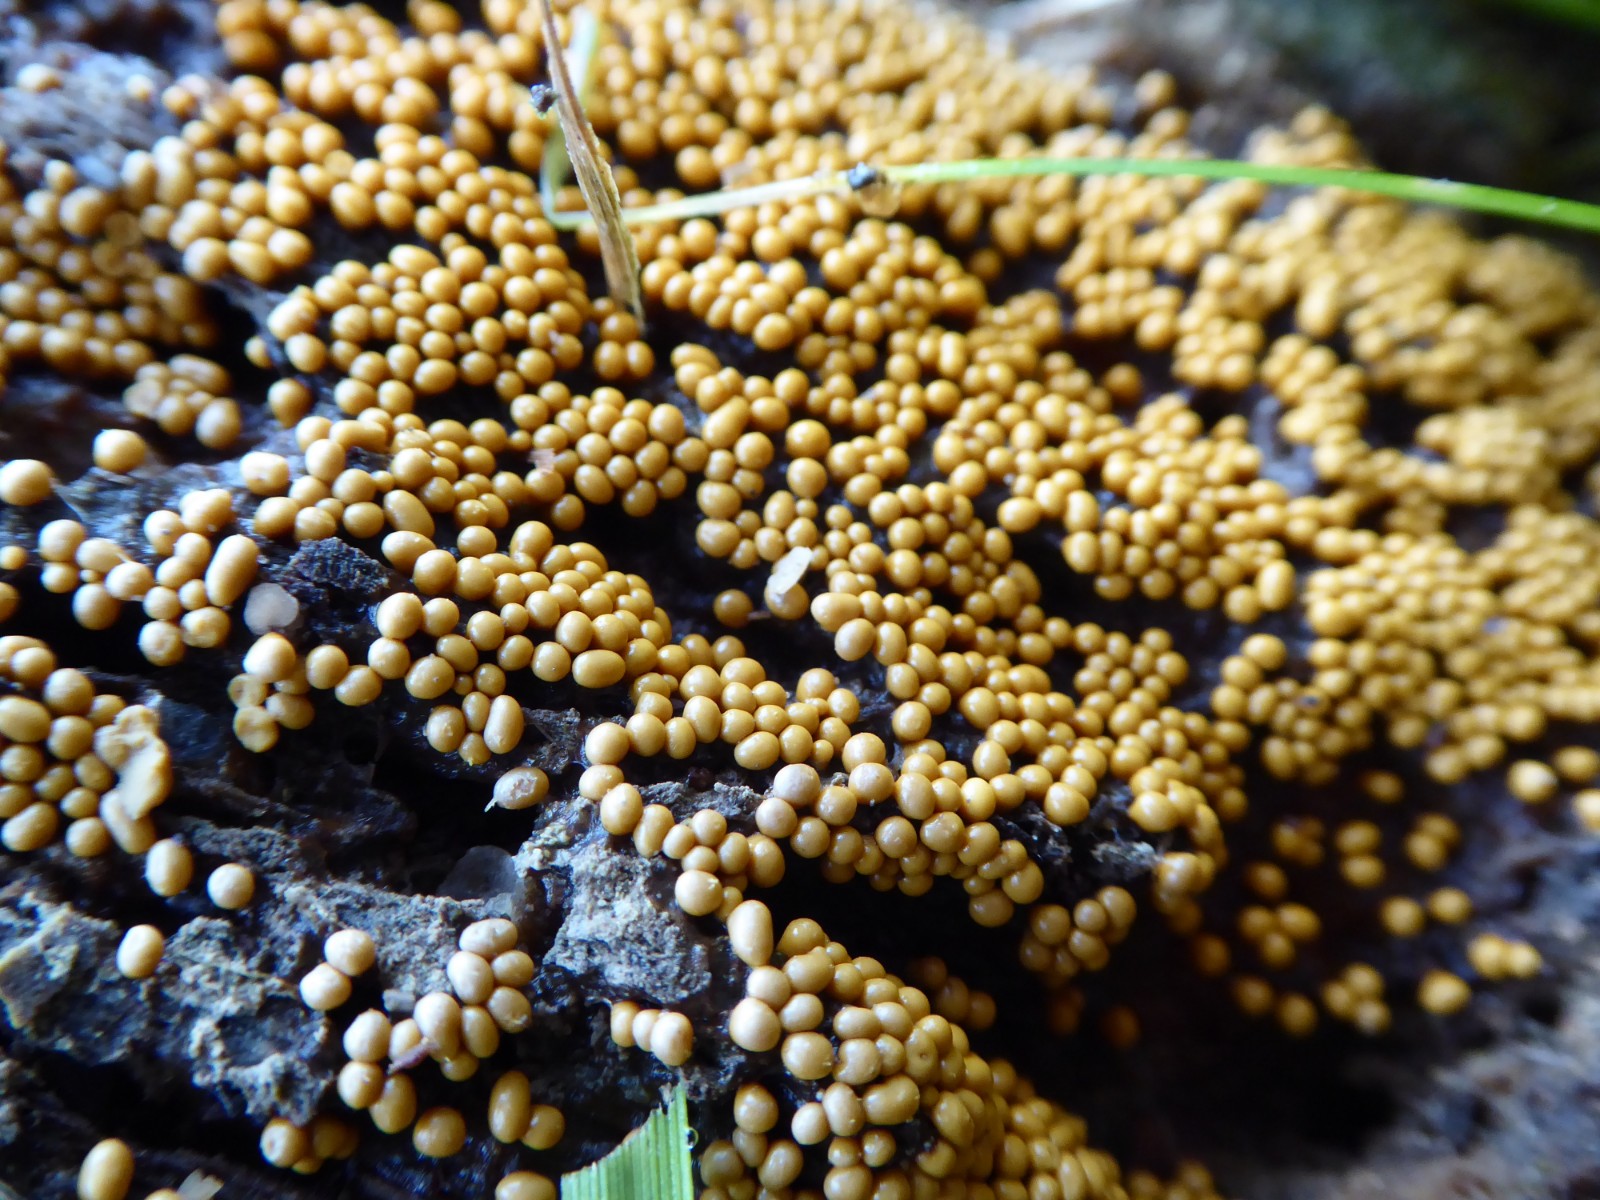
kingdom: Protozoa
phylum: Mycetozoa
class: Myxomycetes
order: Trichiales
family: Trichiaceae
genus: Trichia
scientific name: Trichia varia
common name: foranderlig hårbold
